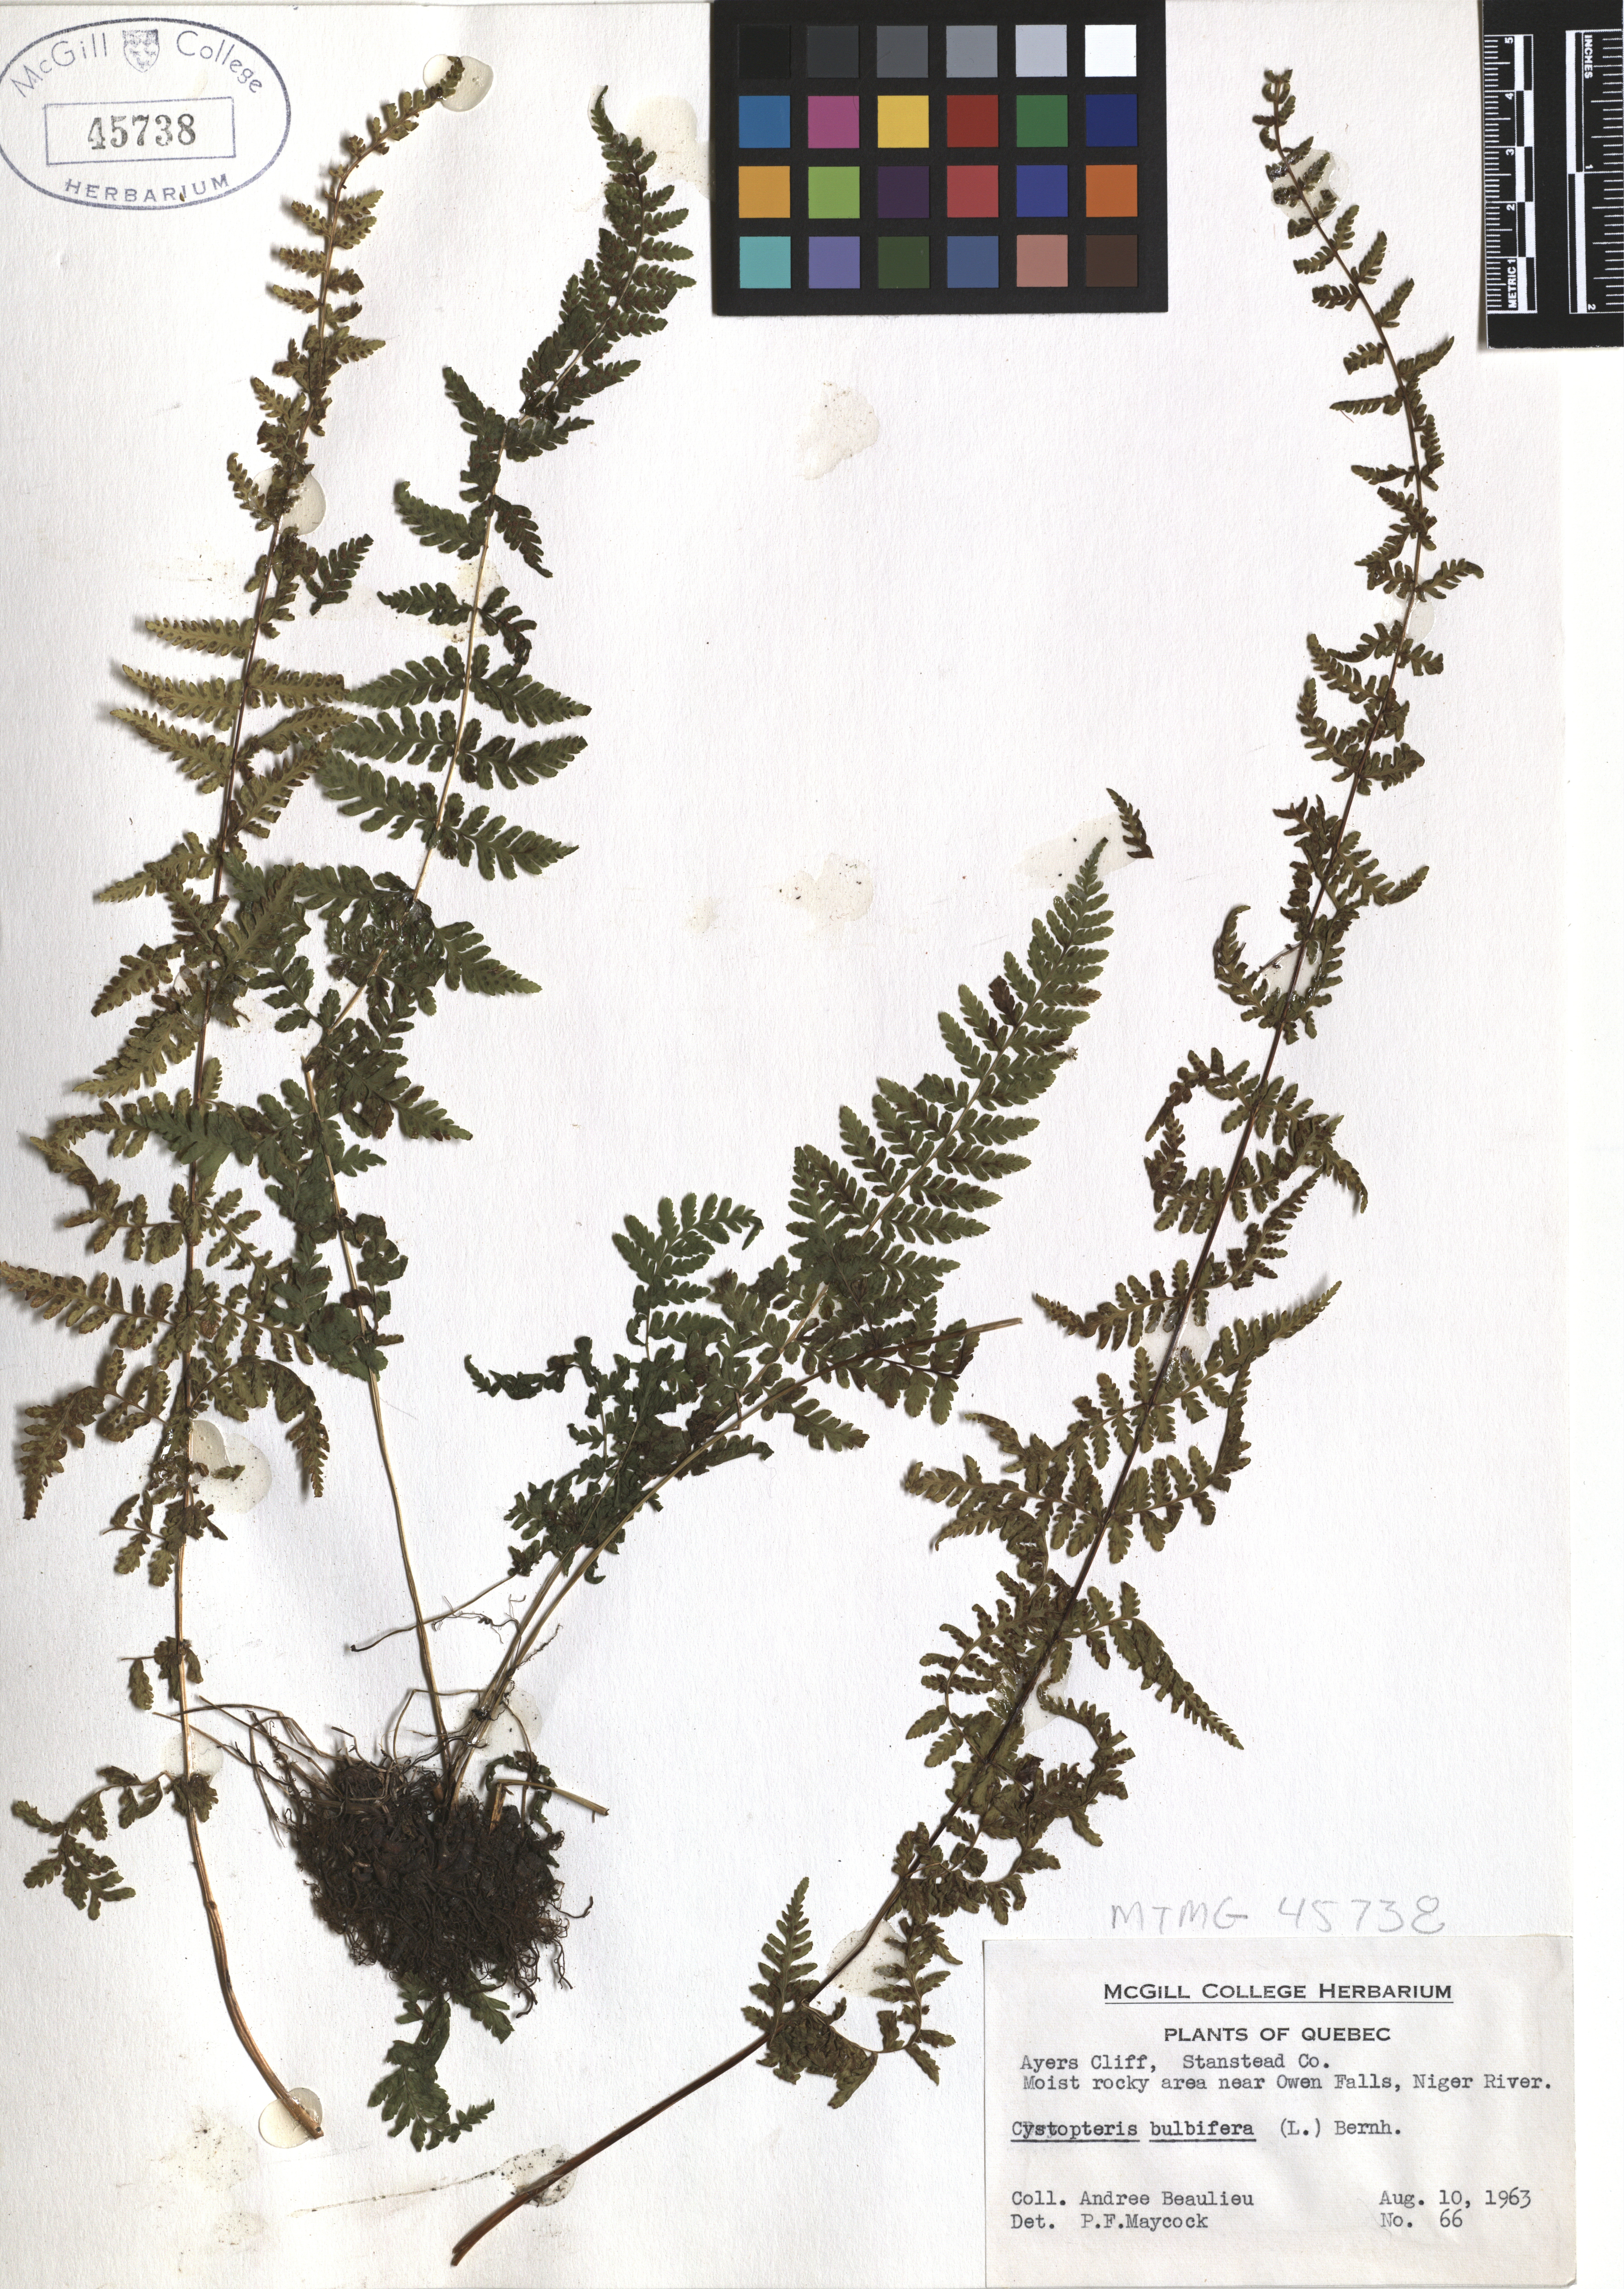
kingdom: Plantae
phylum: Tracheophyta
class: Polypodiopsida
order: Polypodiales
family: Cystopteridaceae
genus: Cystopteris
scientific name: Cystopteris bulbifera
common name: Bulblet bladder fern
